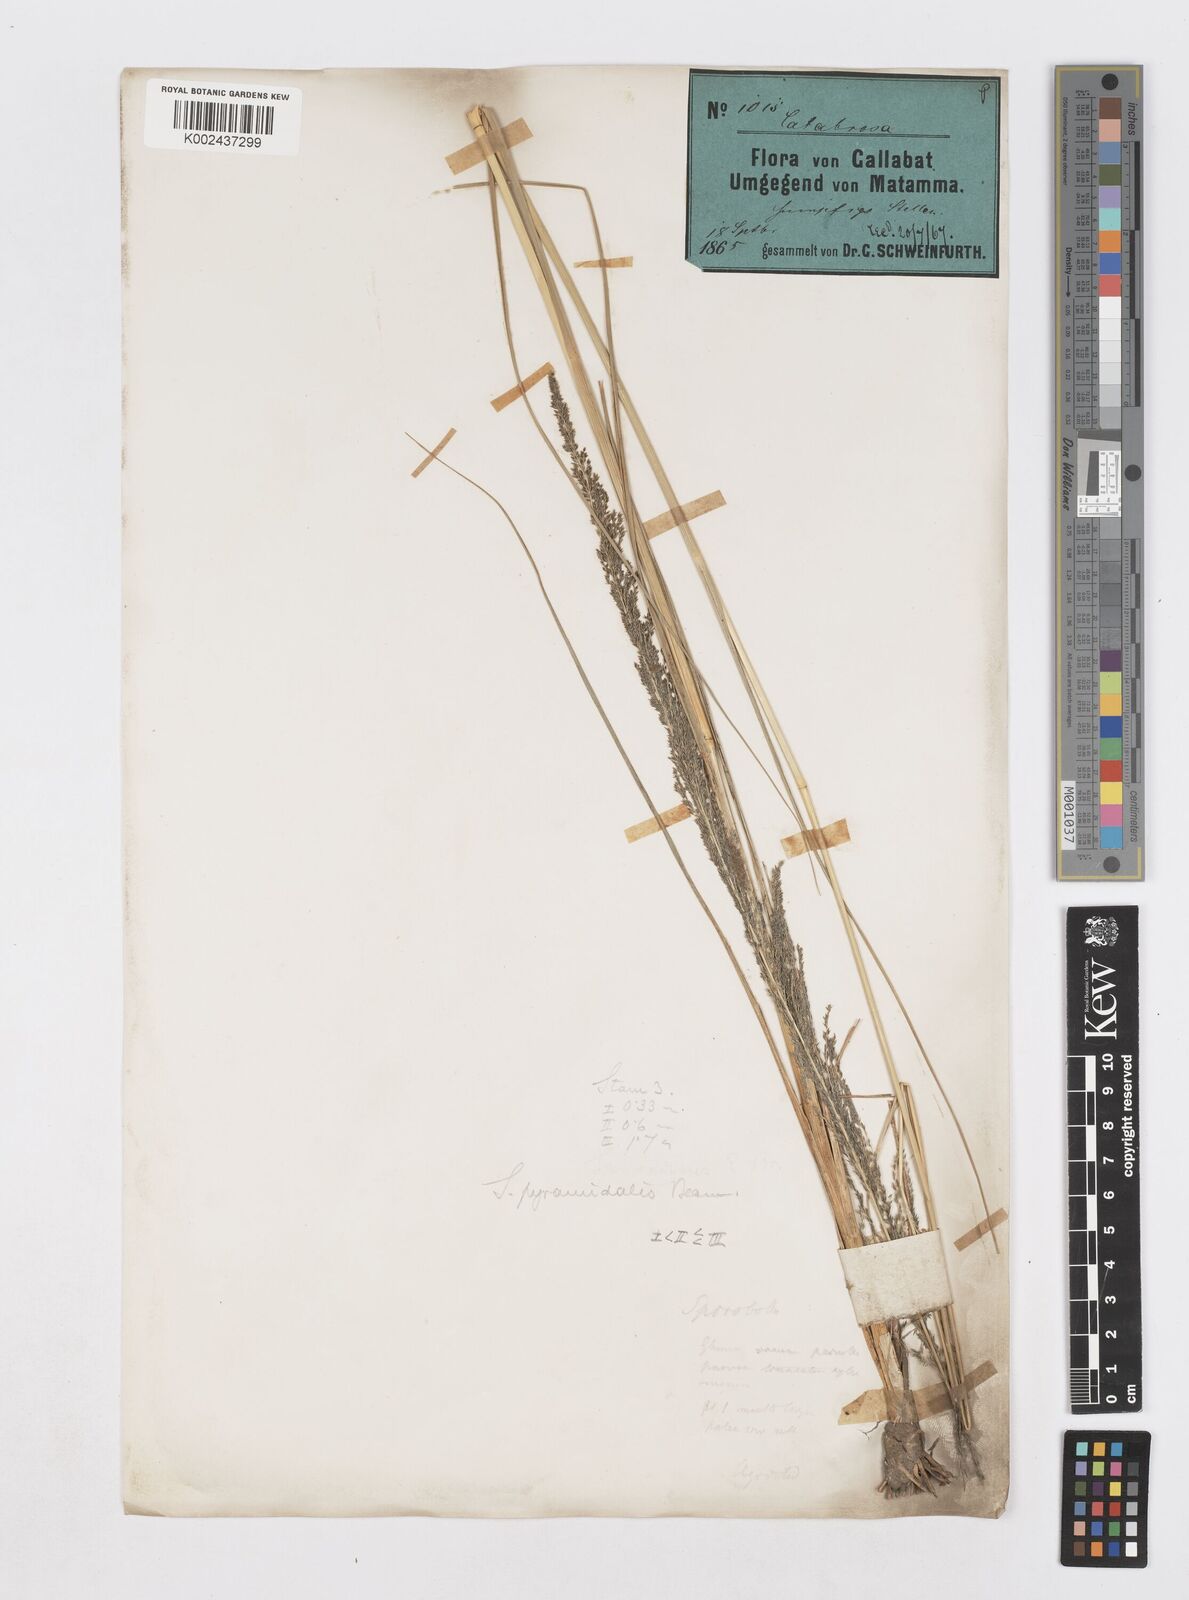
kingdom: Plantae
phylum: Tracheophyta
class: Liliopsida
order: Poales
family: Poaceae
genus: Sporobolus
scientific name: Sporobolus pyramidalis
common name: West indian dropseed
